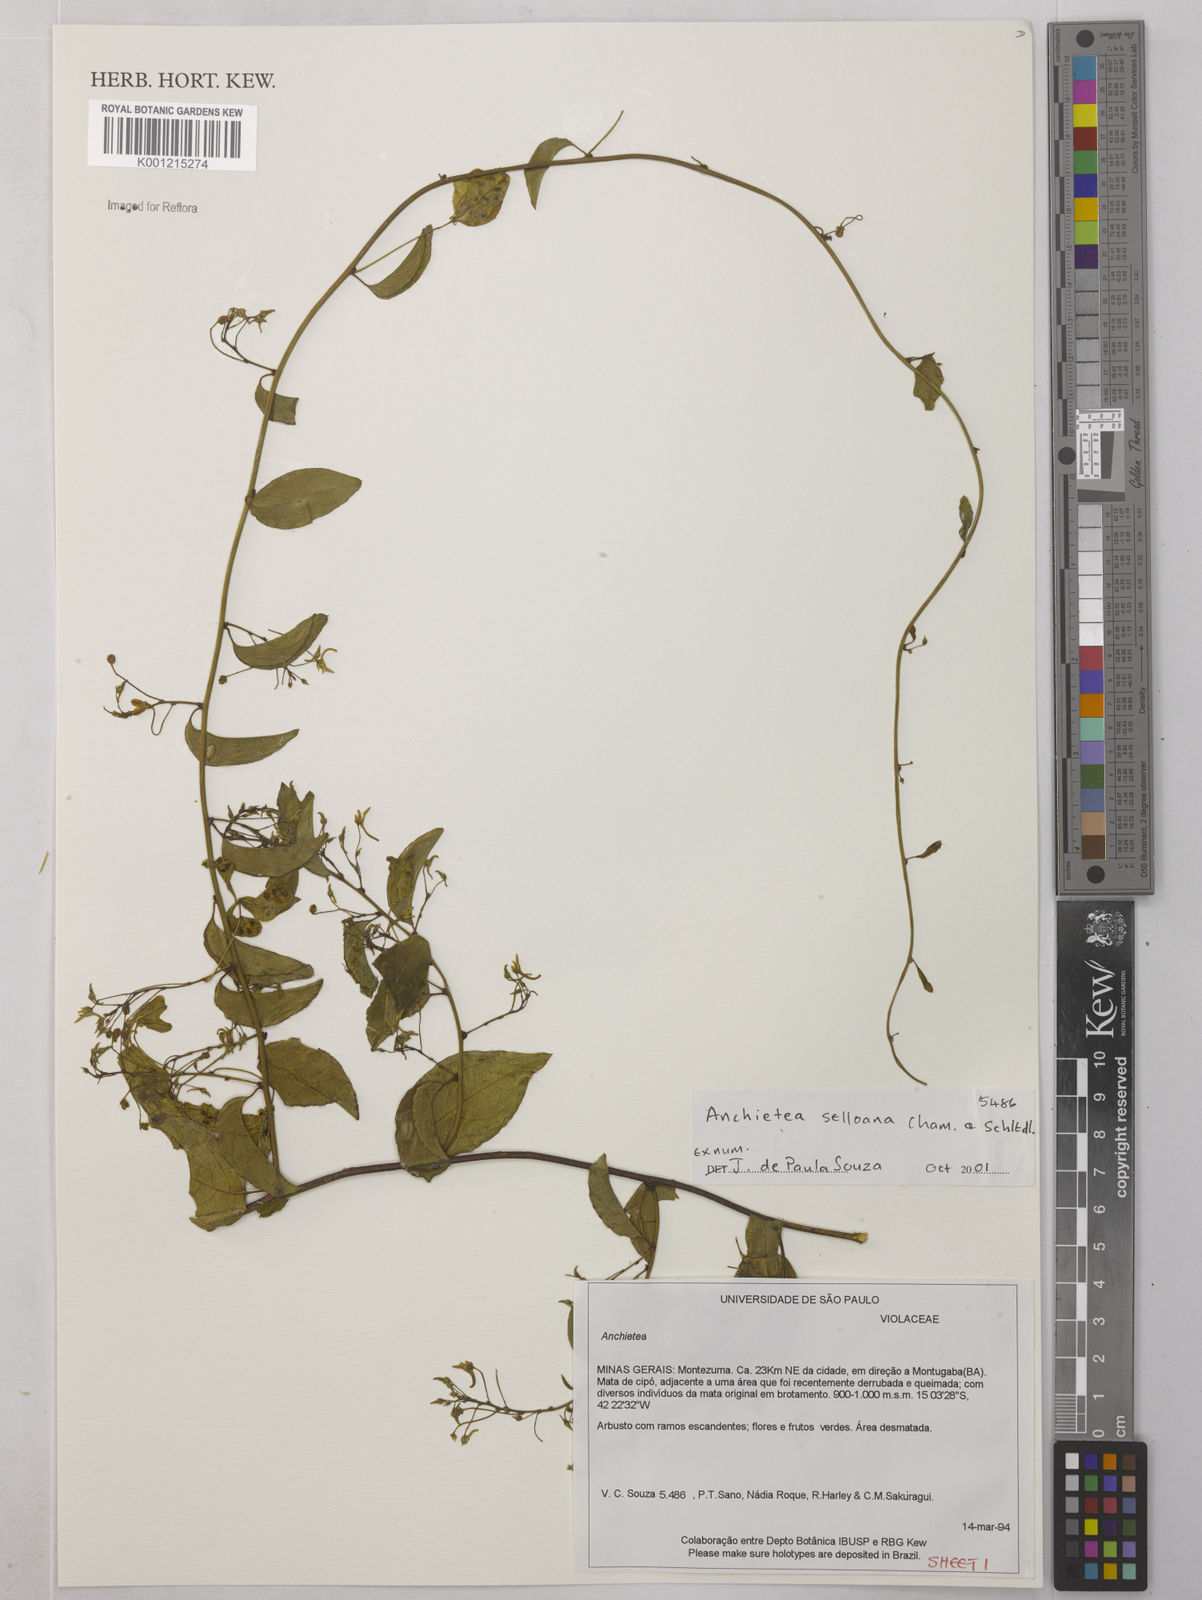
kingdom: Plantae
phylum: Tracheophyta
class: Magnoliopsida
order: Malpighiales
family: Violaceae
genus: Anchietea
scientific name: Anchietea sellowiana
